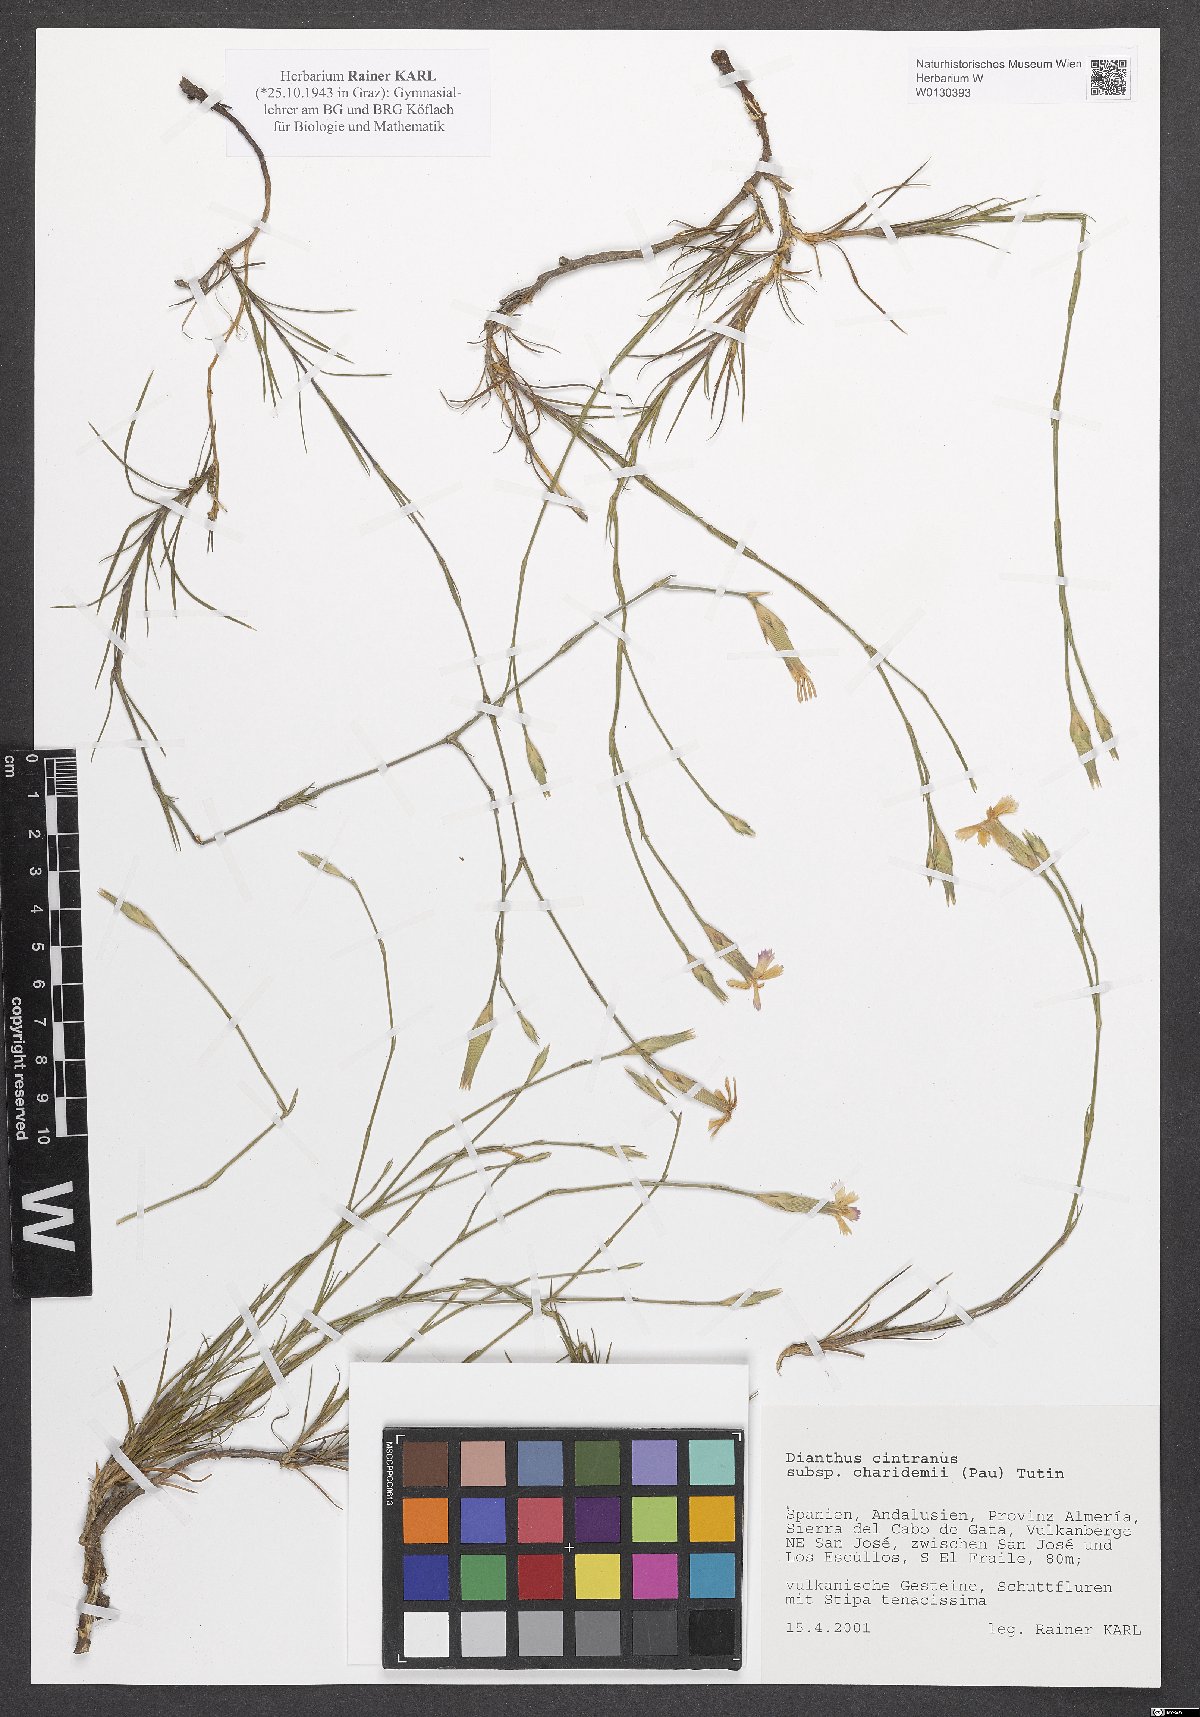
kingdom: Plantae
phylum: Tracheophyta
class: Magnoliopsida
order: Caryophyllales
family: Caryophyllaceae
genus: Dianthus
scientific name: Dianthus charidemi
